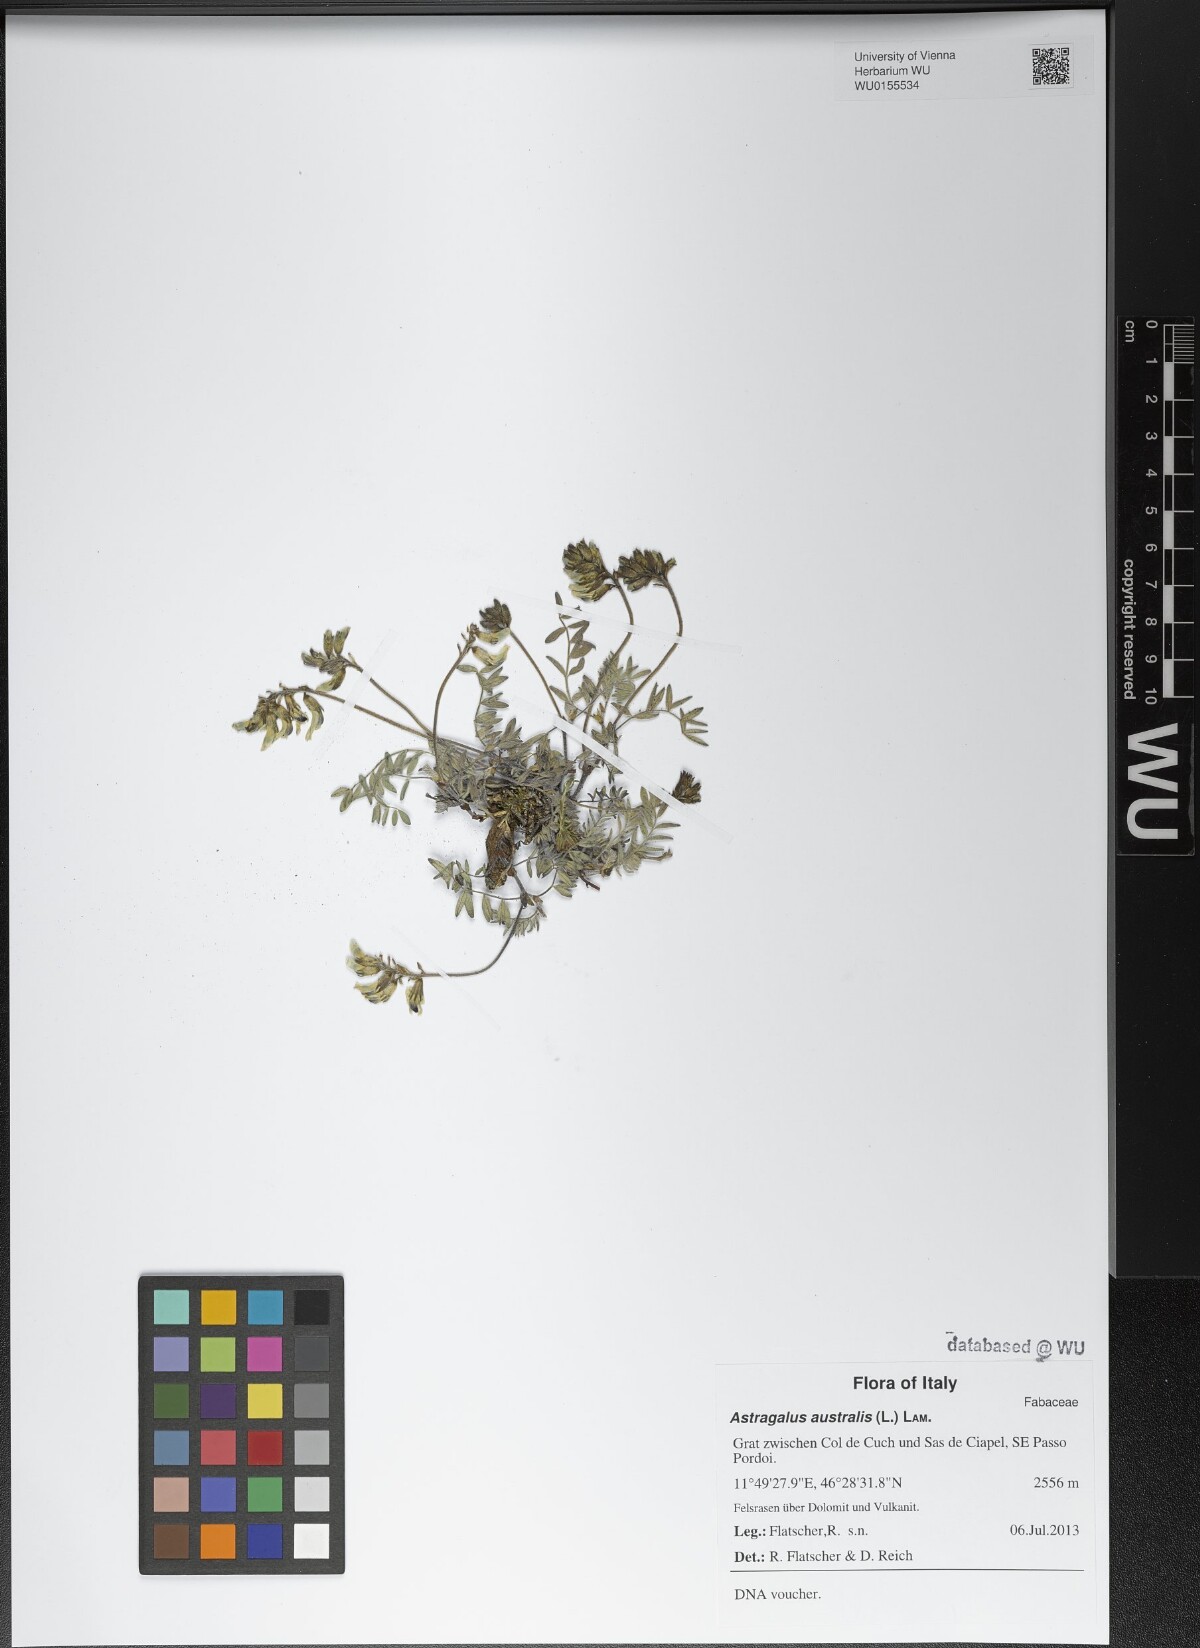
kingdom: Plantae
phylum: Tracheophyta
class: Magnoliopsida
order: Fabales
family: Fabaceae
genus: Astragalus
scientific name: Astragalus australis
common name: Indian milk-vetch
